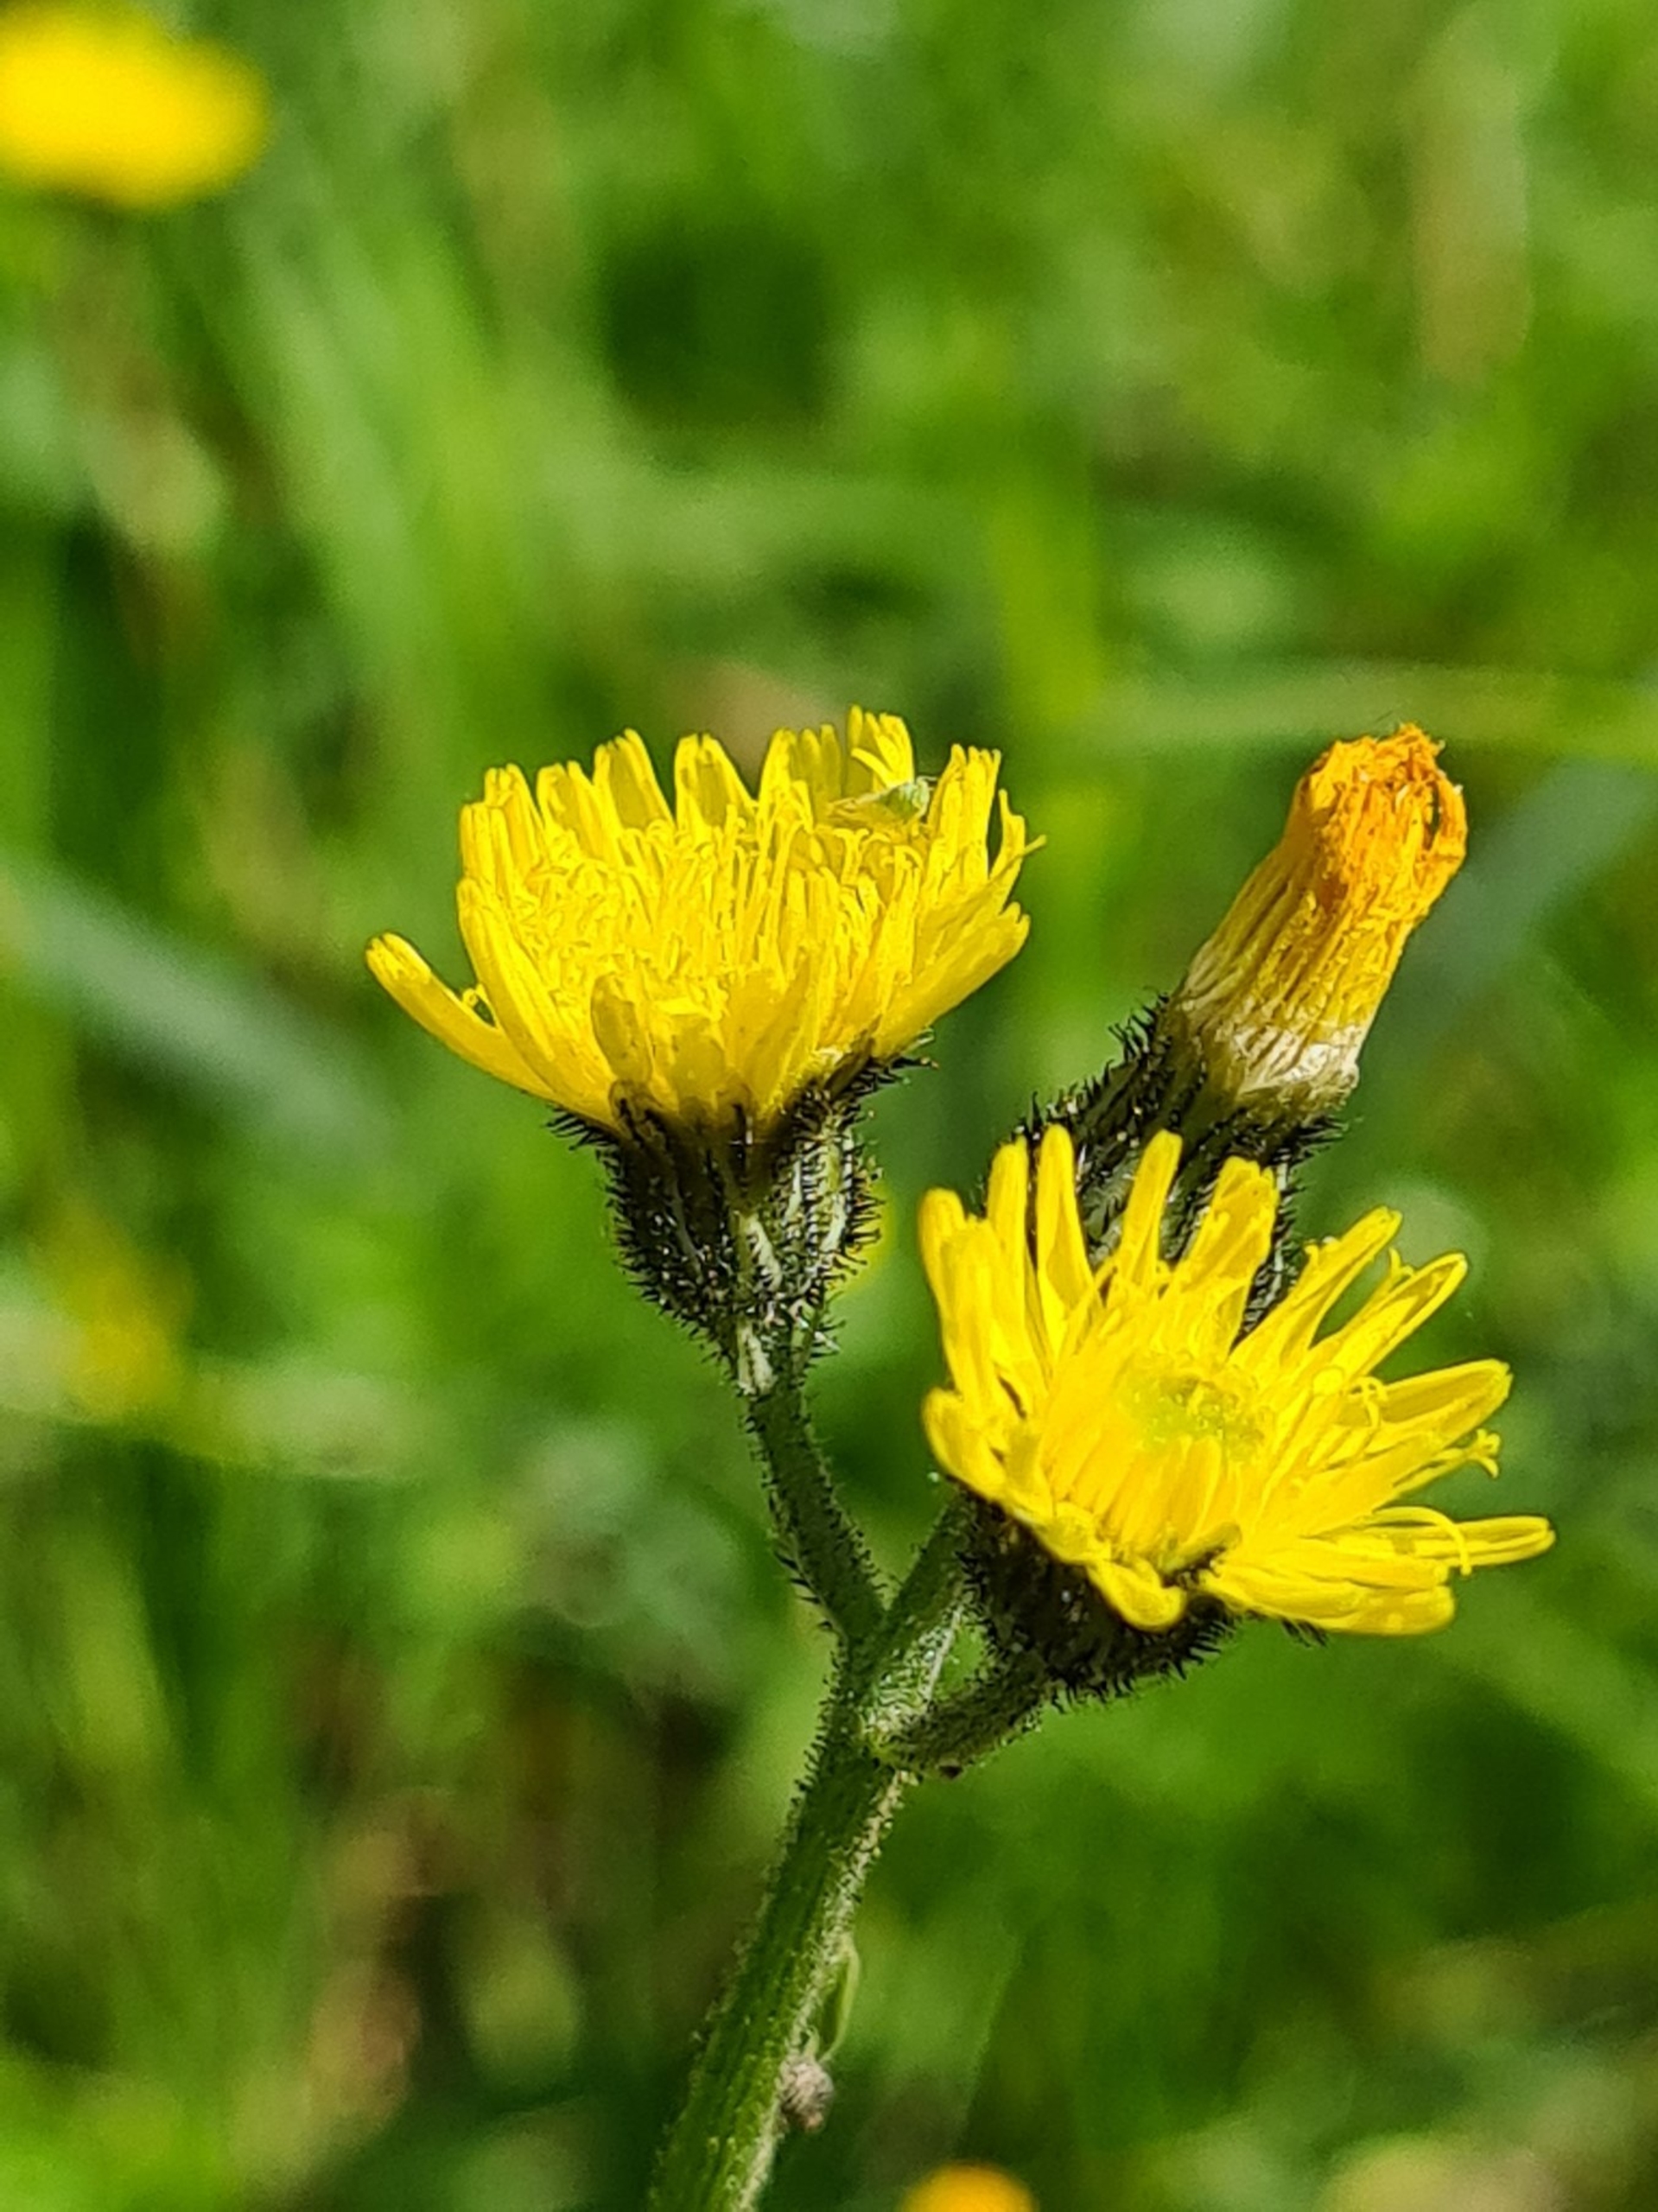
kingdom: Plantae
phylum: Tracheophyta
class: Magnoliopsida
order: Asterales
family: Asteraceae
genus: Pilosella
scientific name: Pilosella lactucella
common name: Lancetbladet høgeurt
